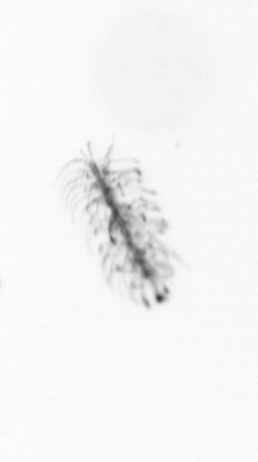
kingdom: Chromista
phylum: Ochrophyta
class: Bacillariophyceae
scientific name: Bacillariophyceae
